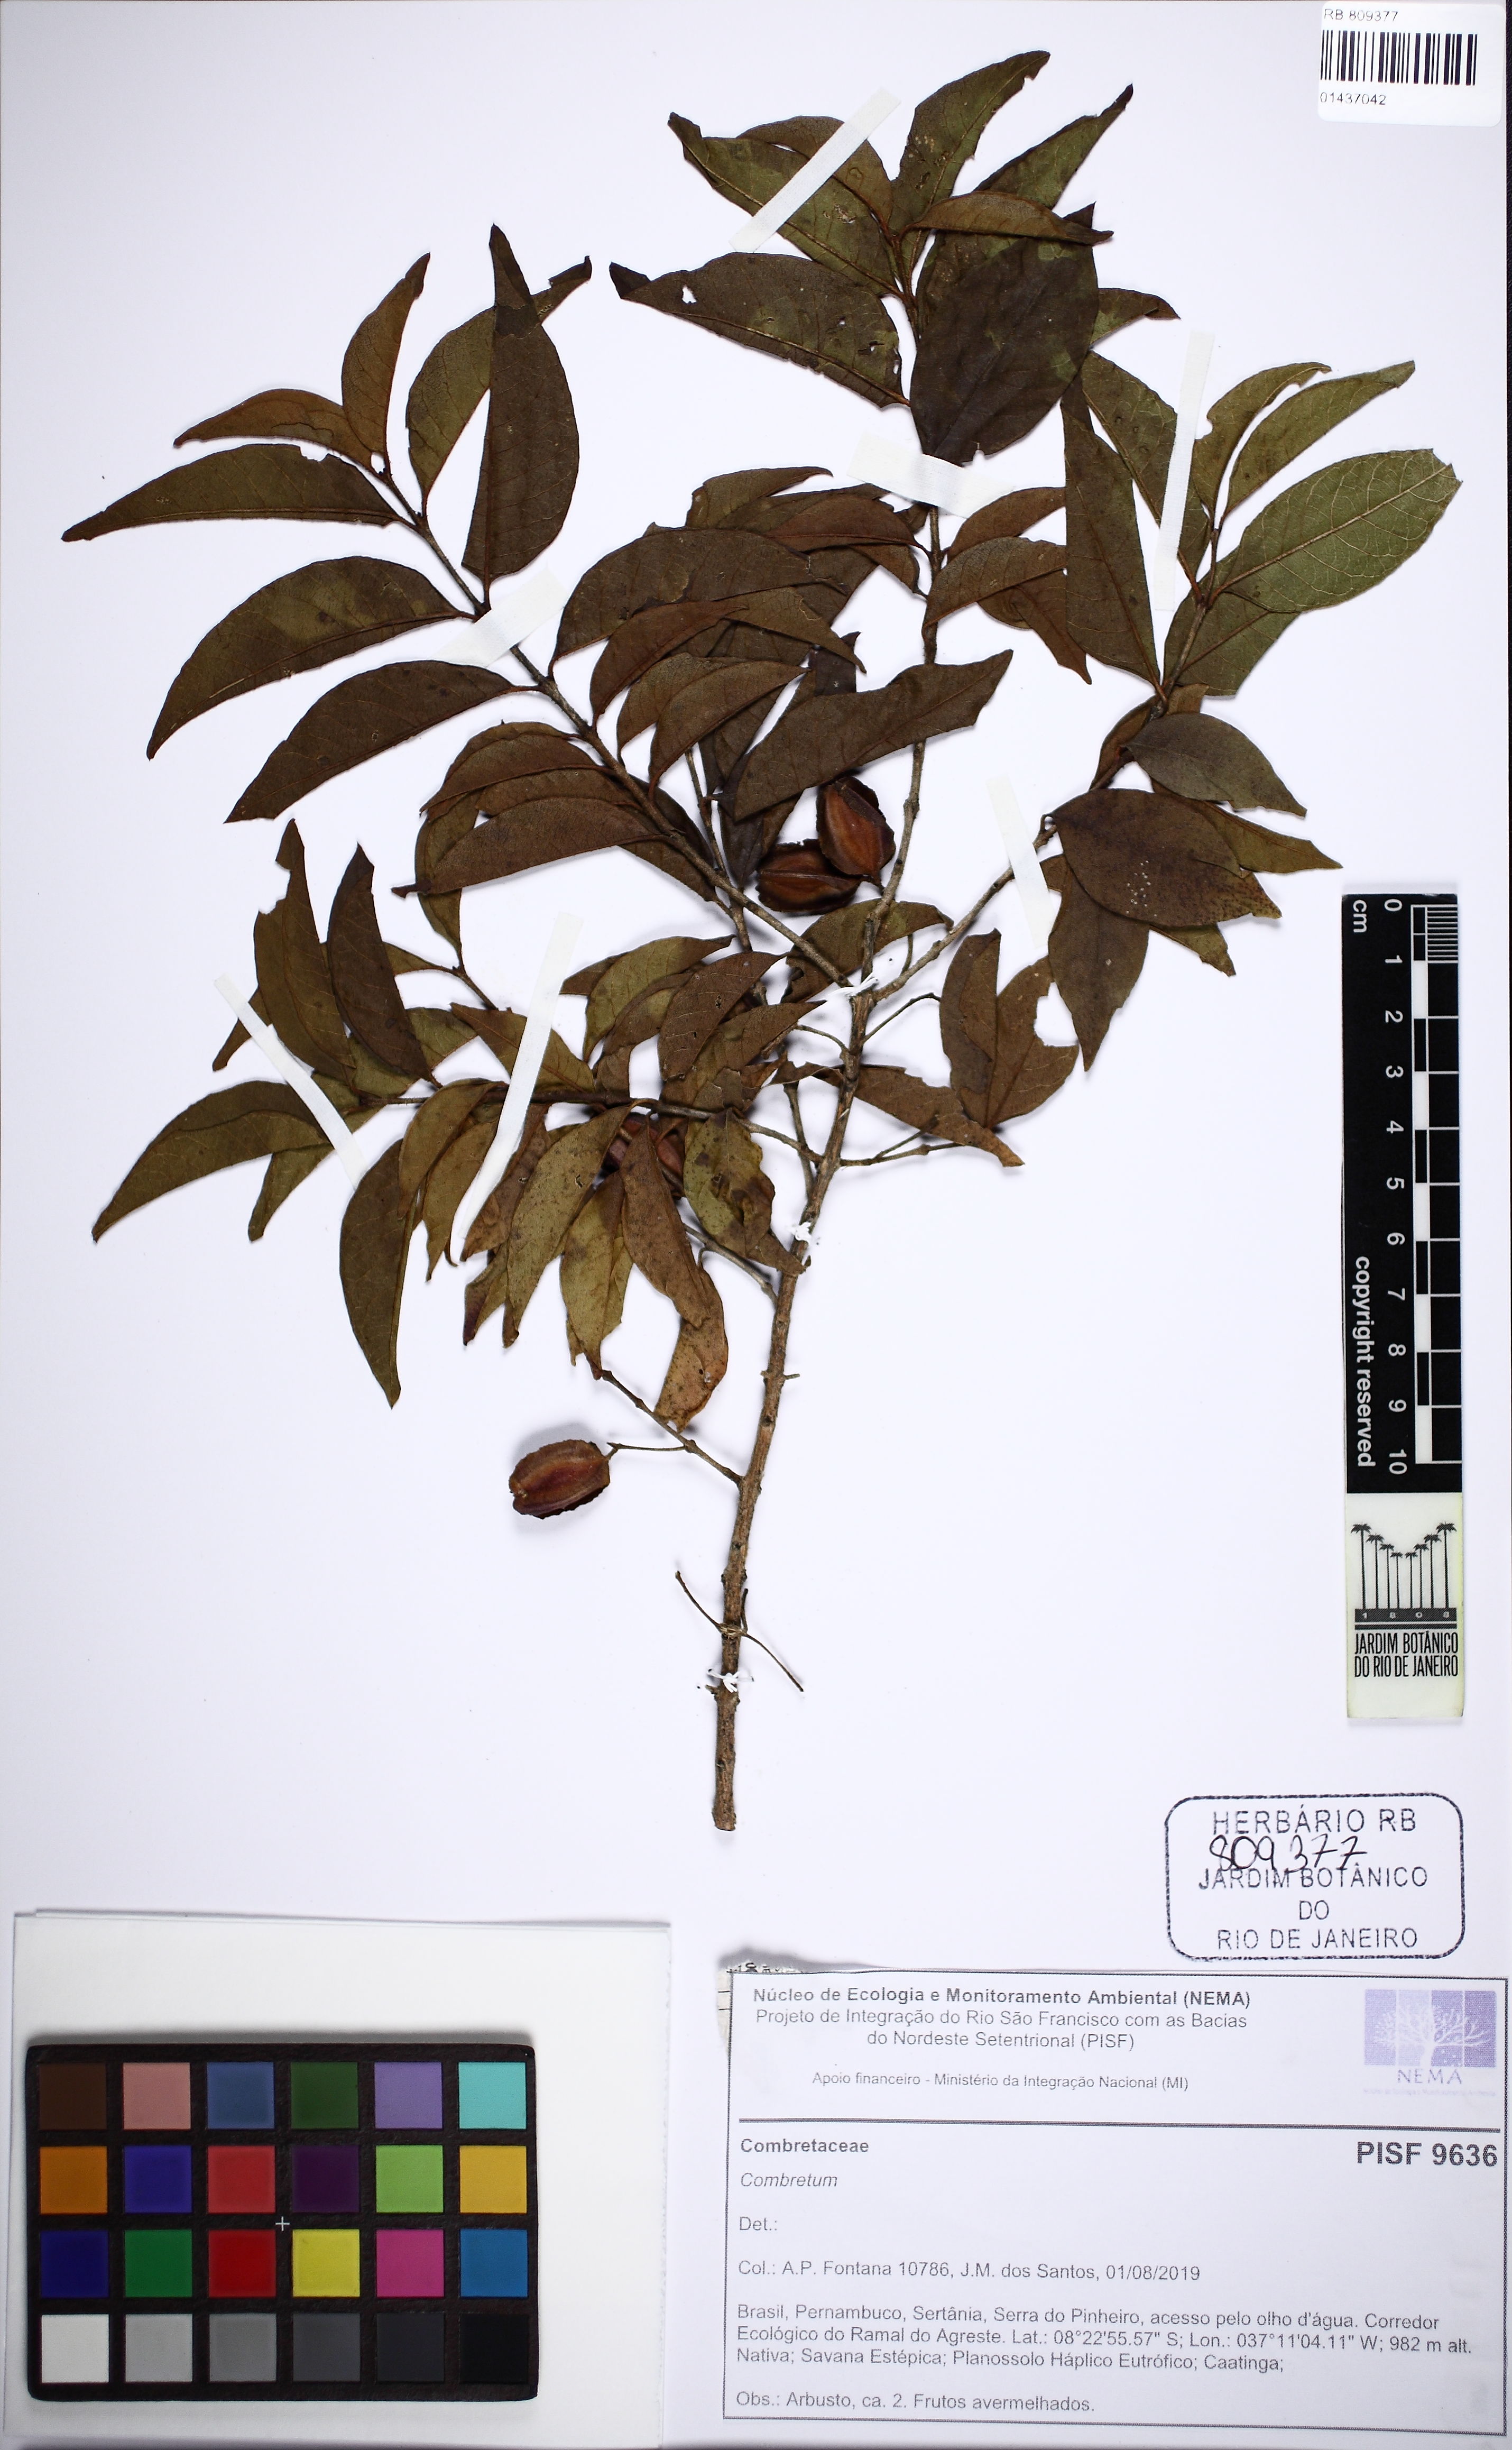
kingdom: Plantae
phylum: Tracheophyta
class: Magnoliopsida
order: Myrtales
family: Combretaceae
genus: Combretum
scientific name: Combretum
